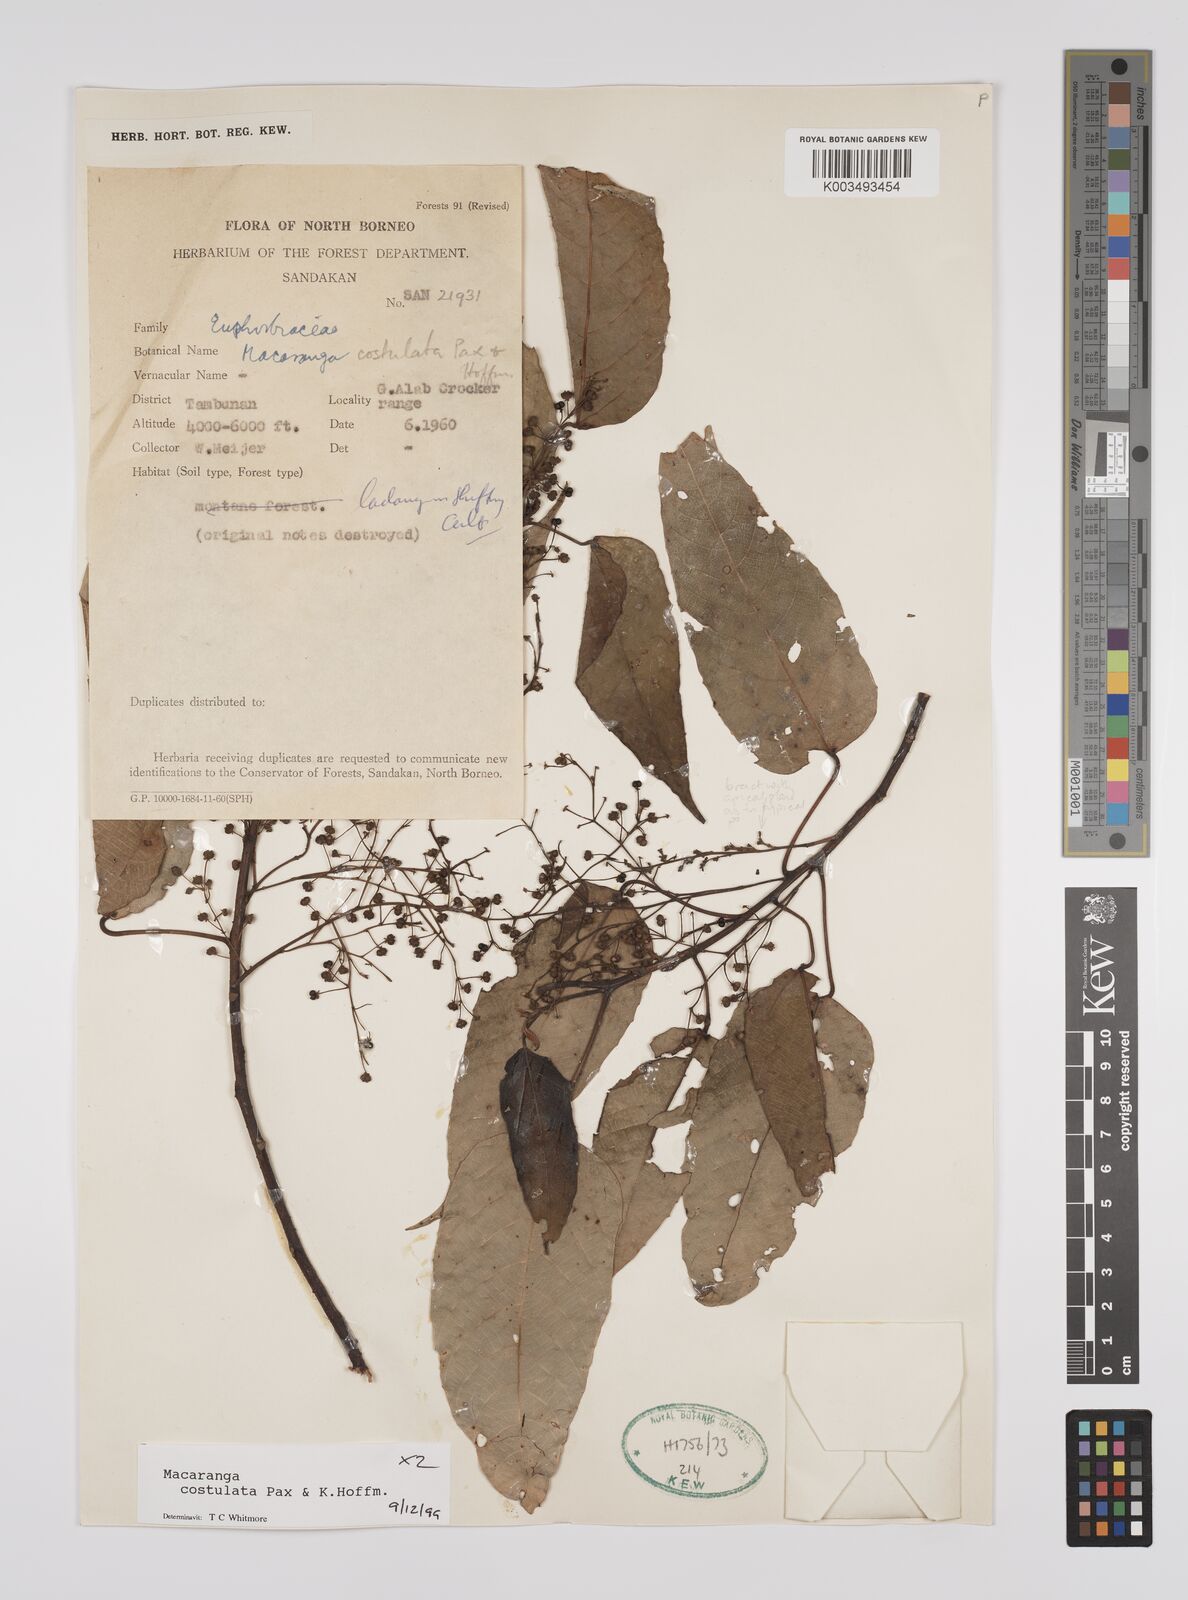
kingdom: Plantae
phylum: Tracheophyta
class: Magnoliopsida
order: Malpighiales
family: Euphorbiaceae
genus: Macaranga
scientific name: Macaranga costulata
